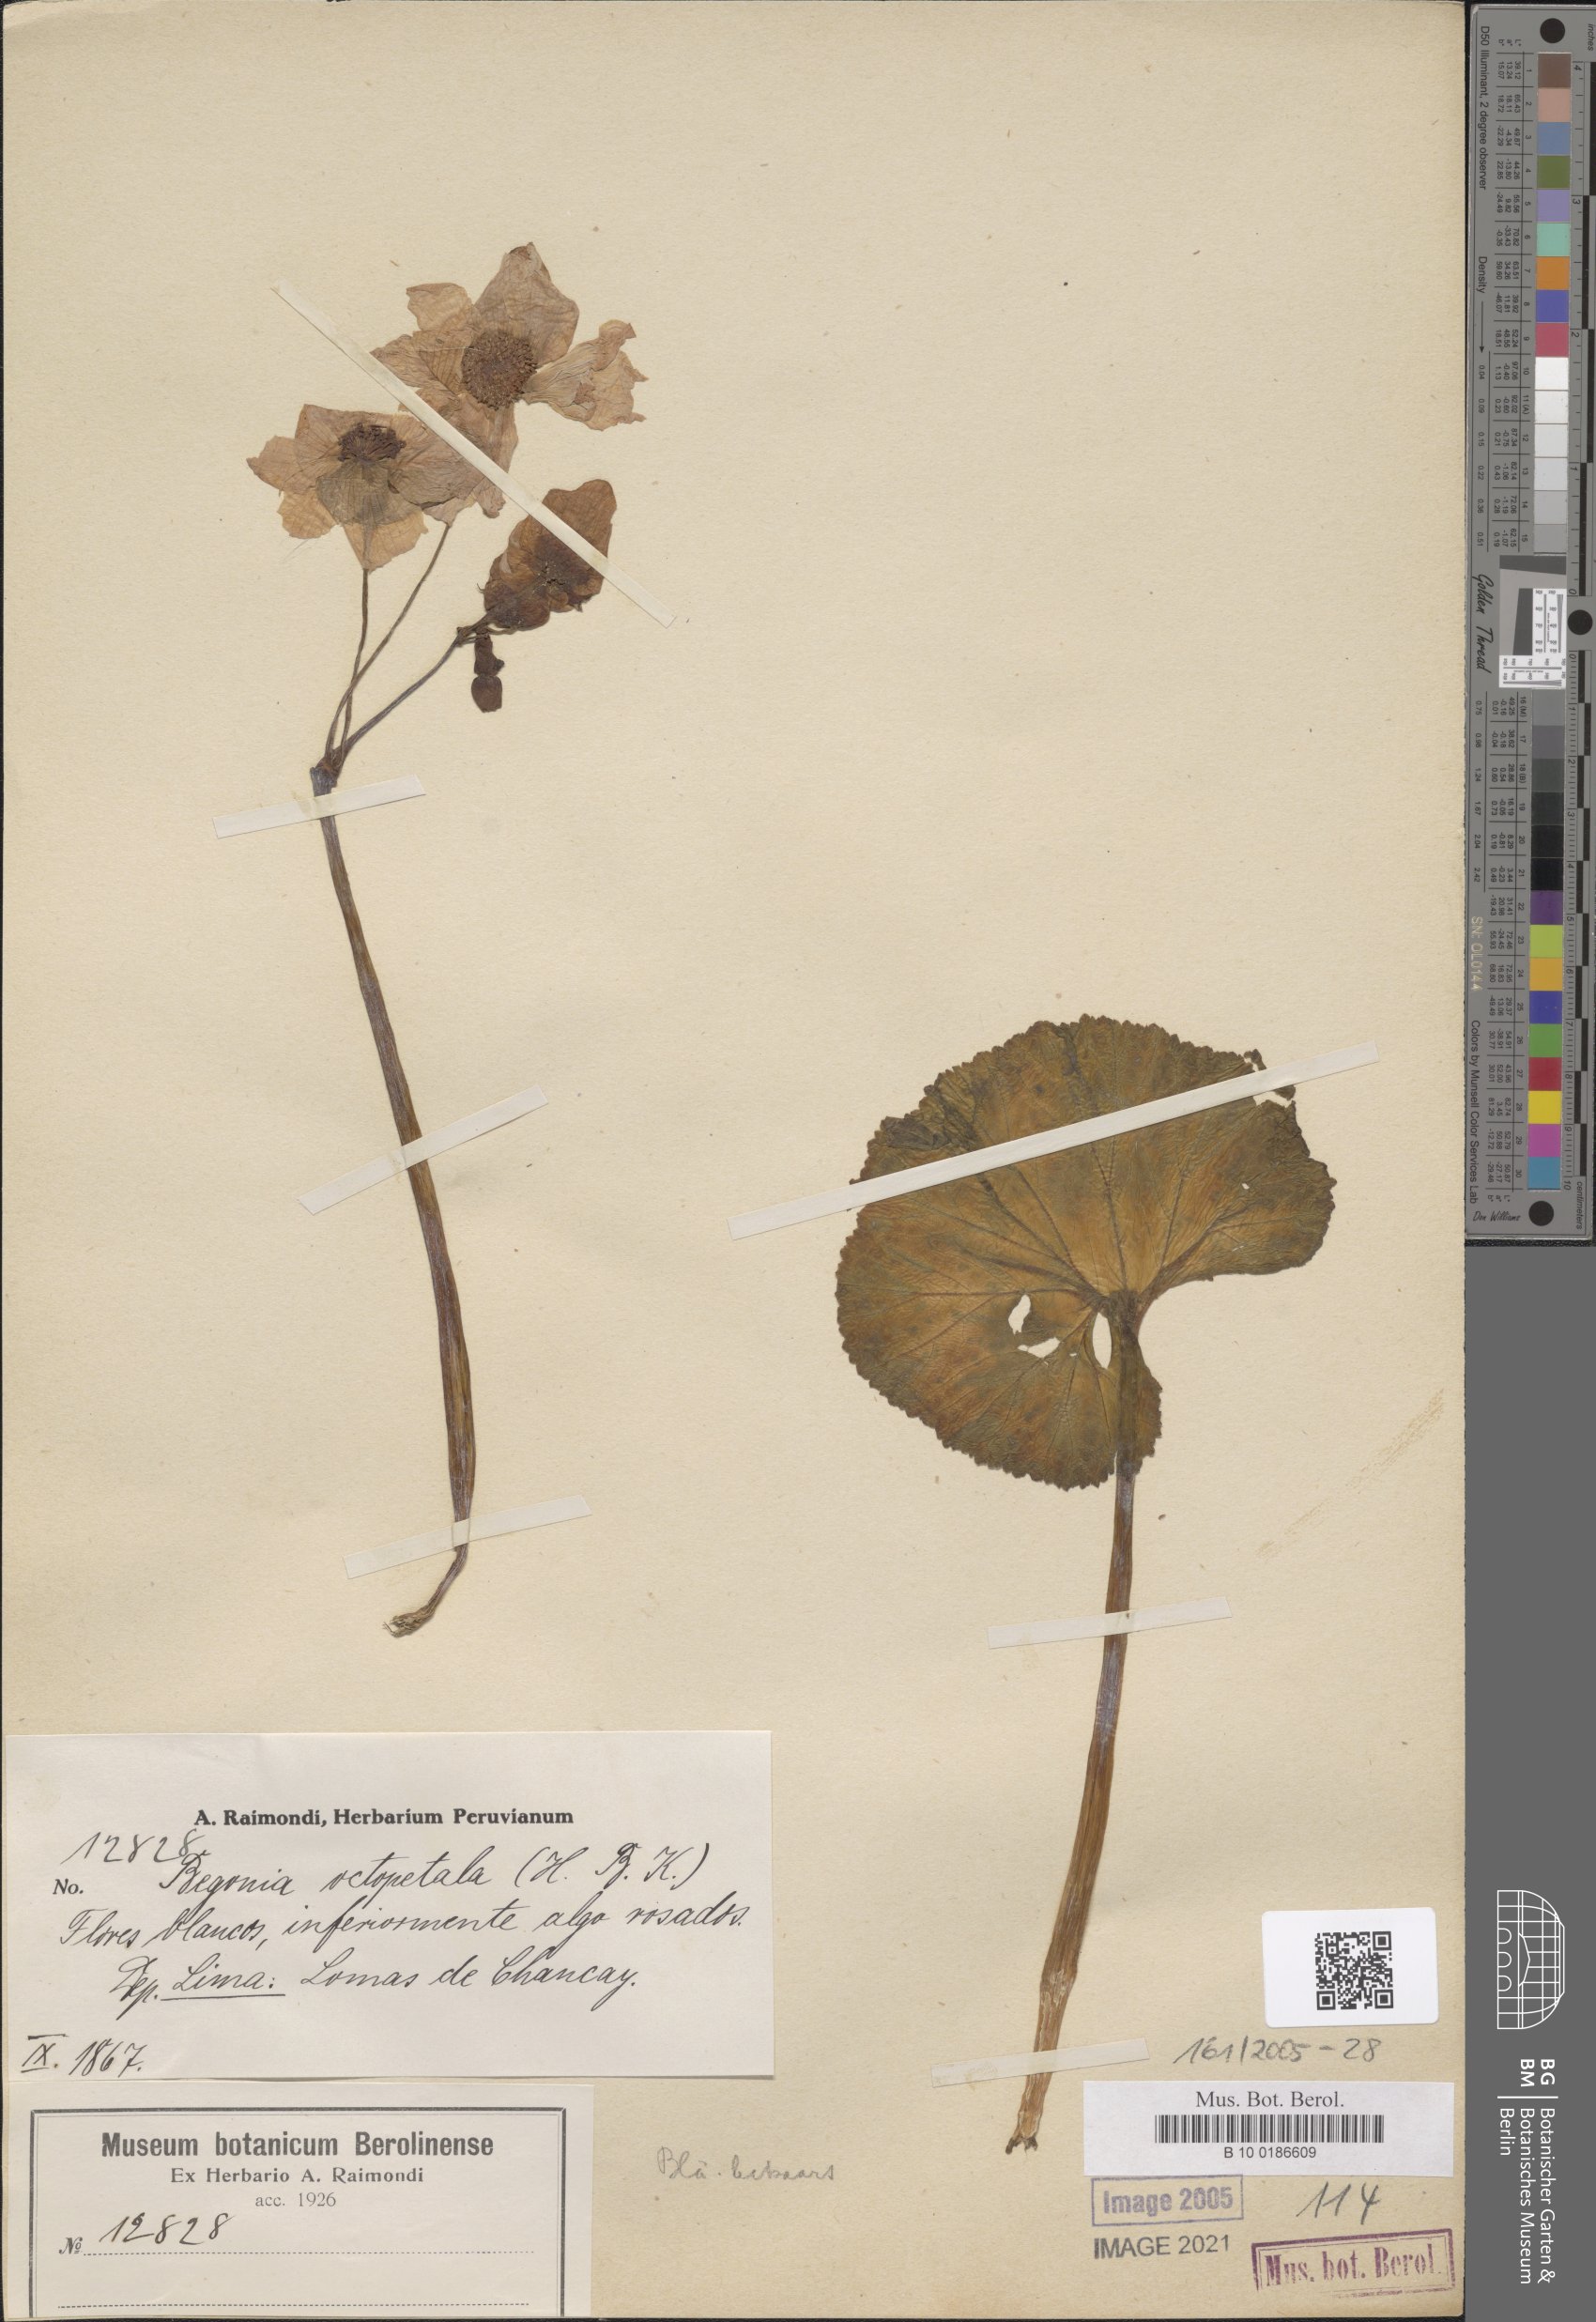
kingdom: Plantae
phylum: Tracheophyta
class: Magnoliopsida
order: Cucurbitales
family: Begoniaceae
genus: Begonia
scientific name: Begonia octopetala
